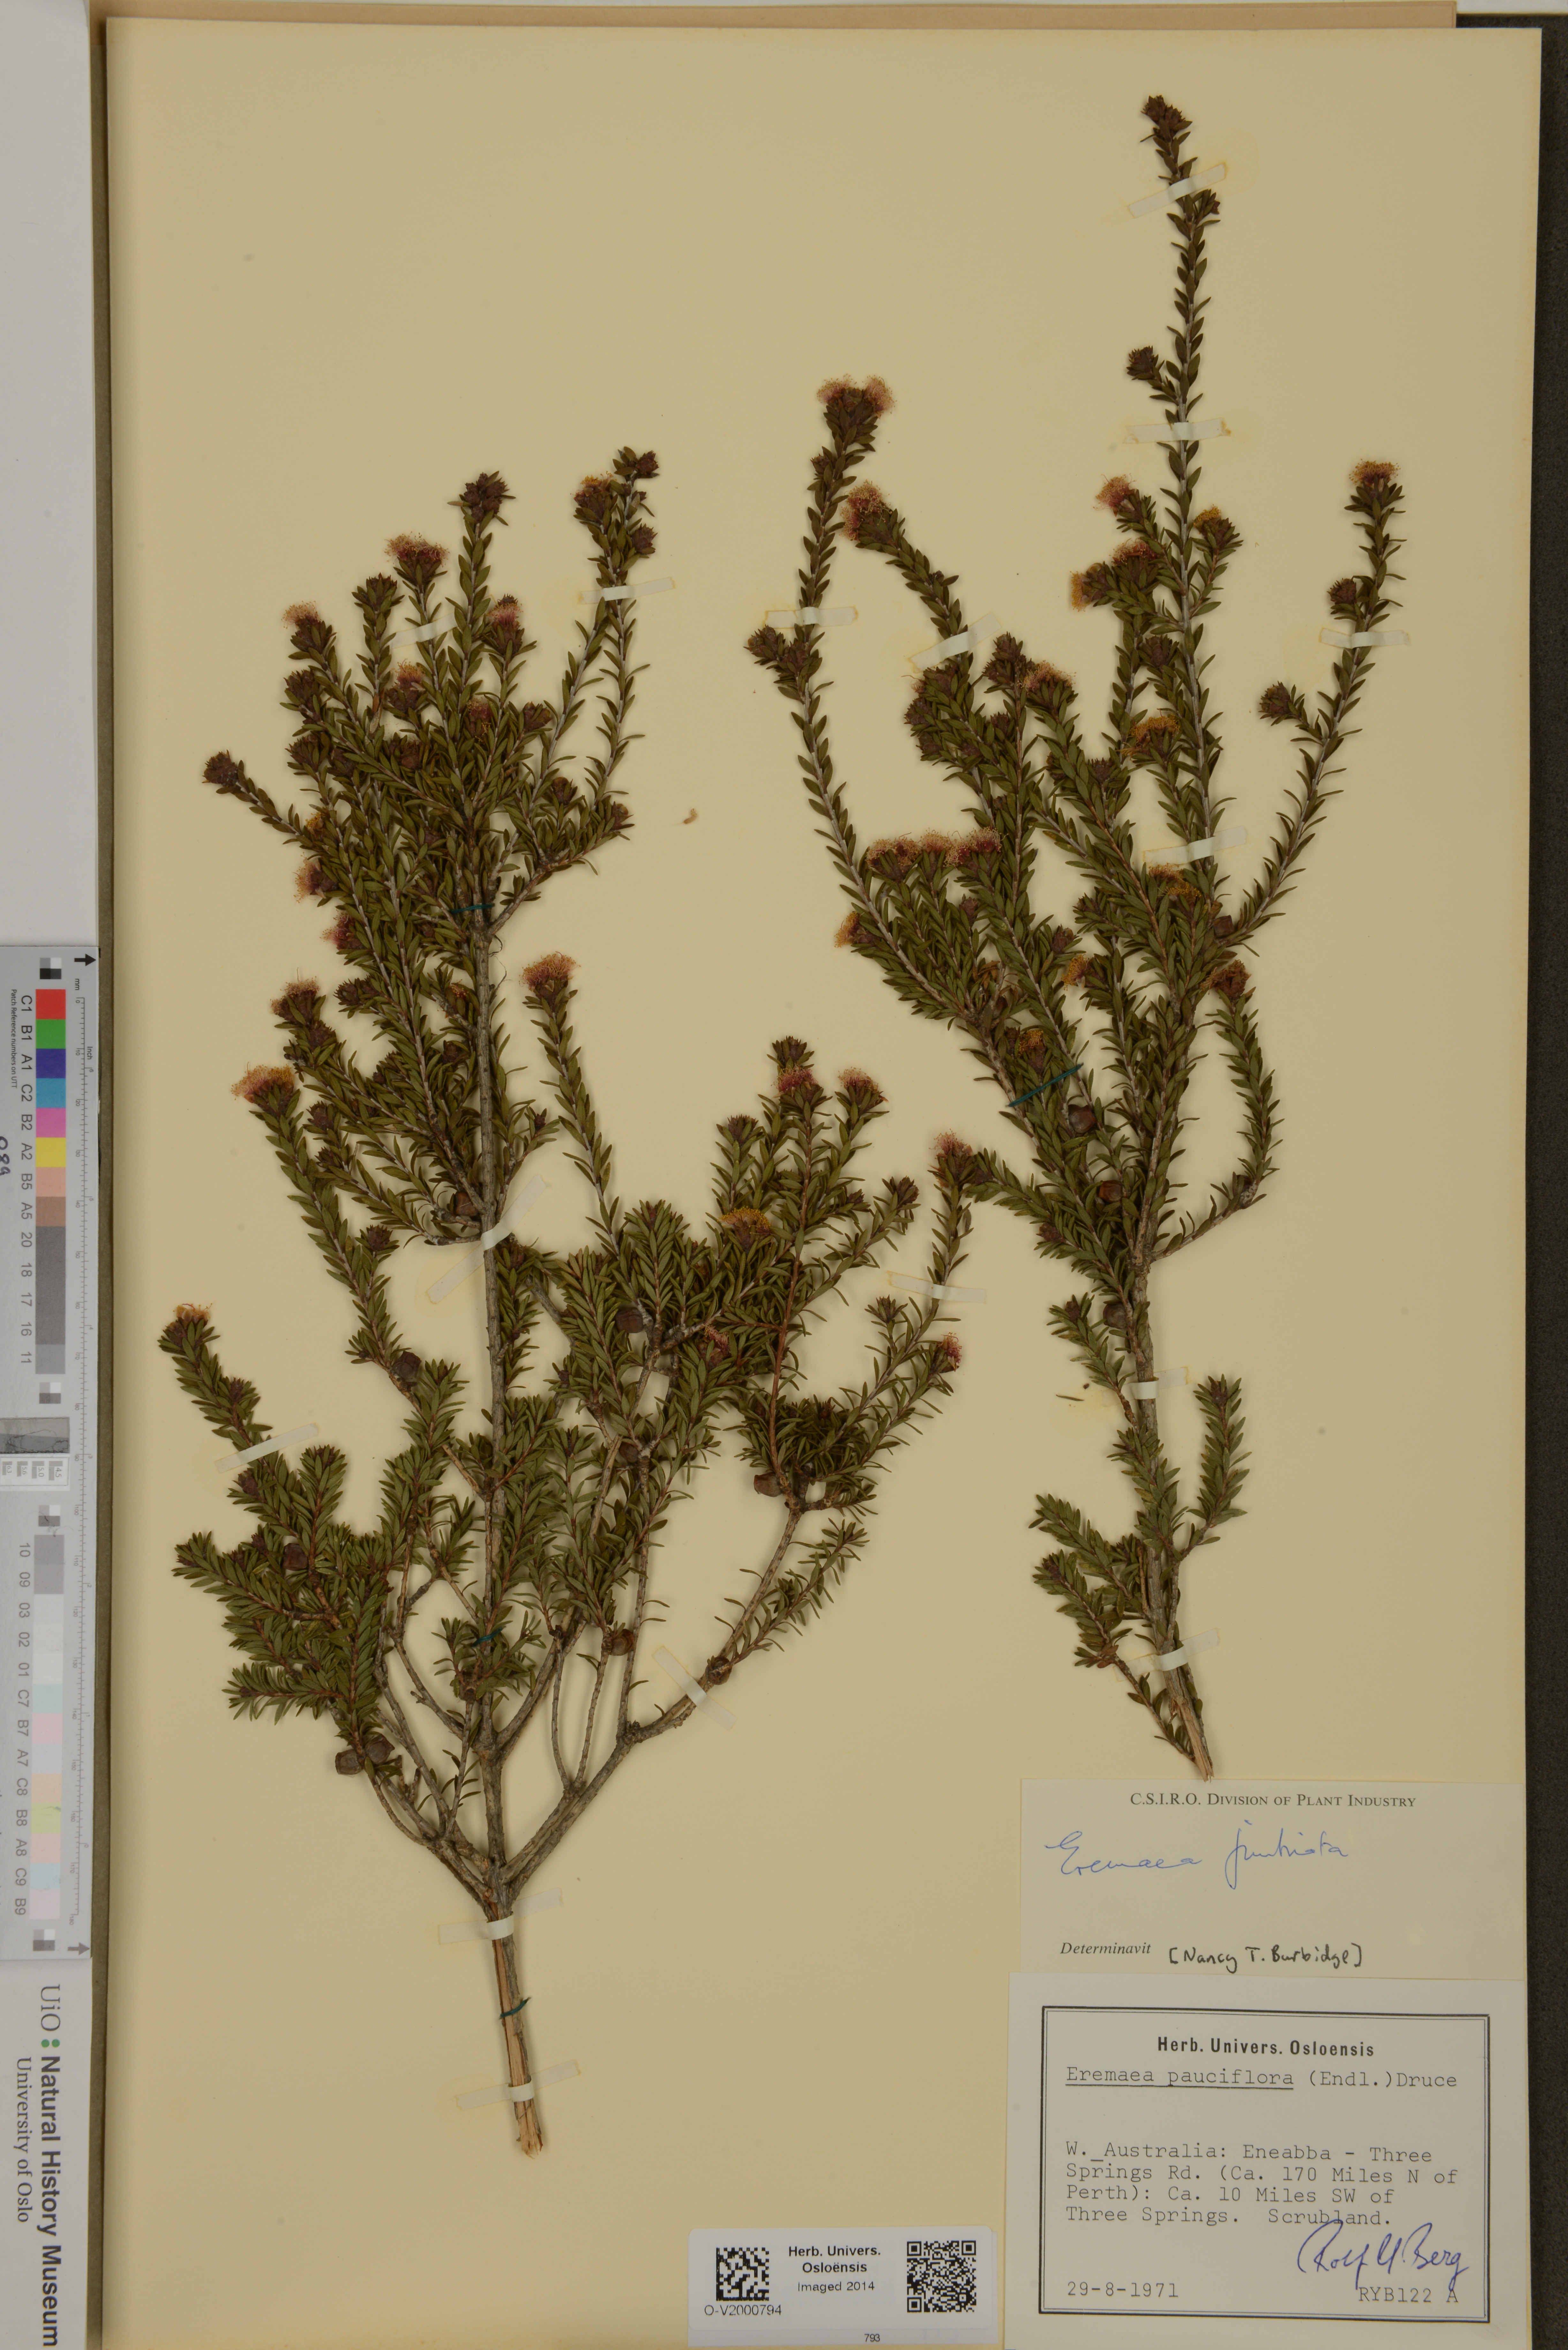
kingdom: Plantae
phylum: Tracheophyta
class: Magnoliopsida
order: Myrtales
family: Myrtaceae
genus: Melaleuca
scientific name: Melaleuca thysanota
